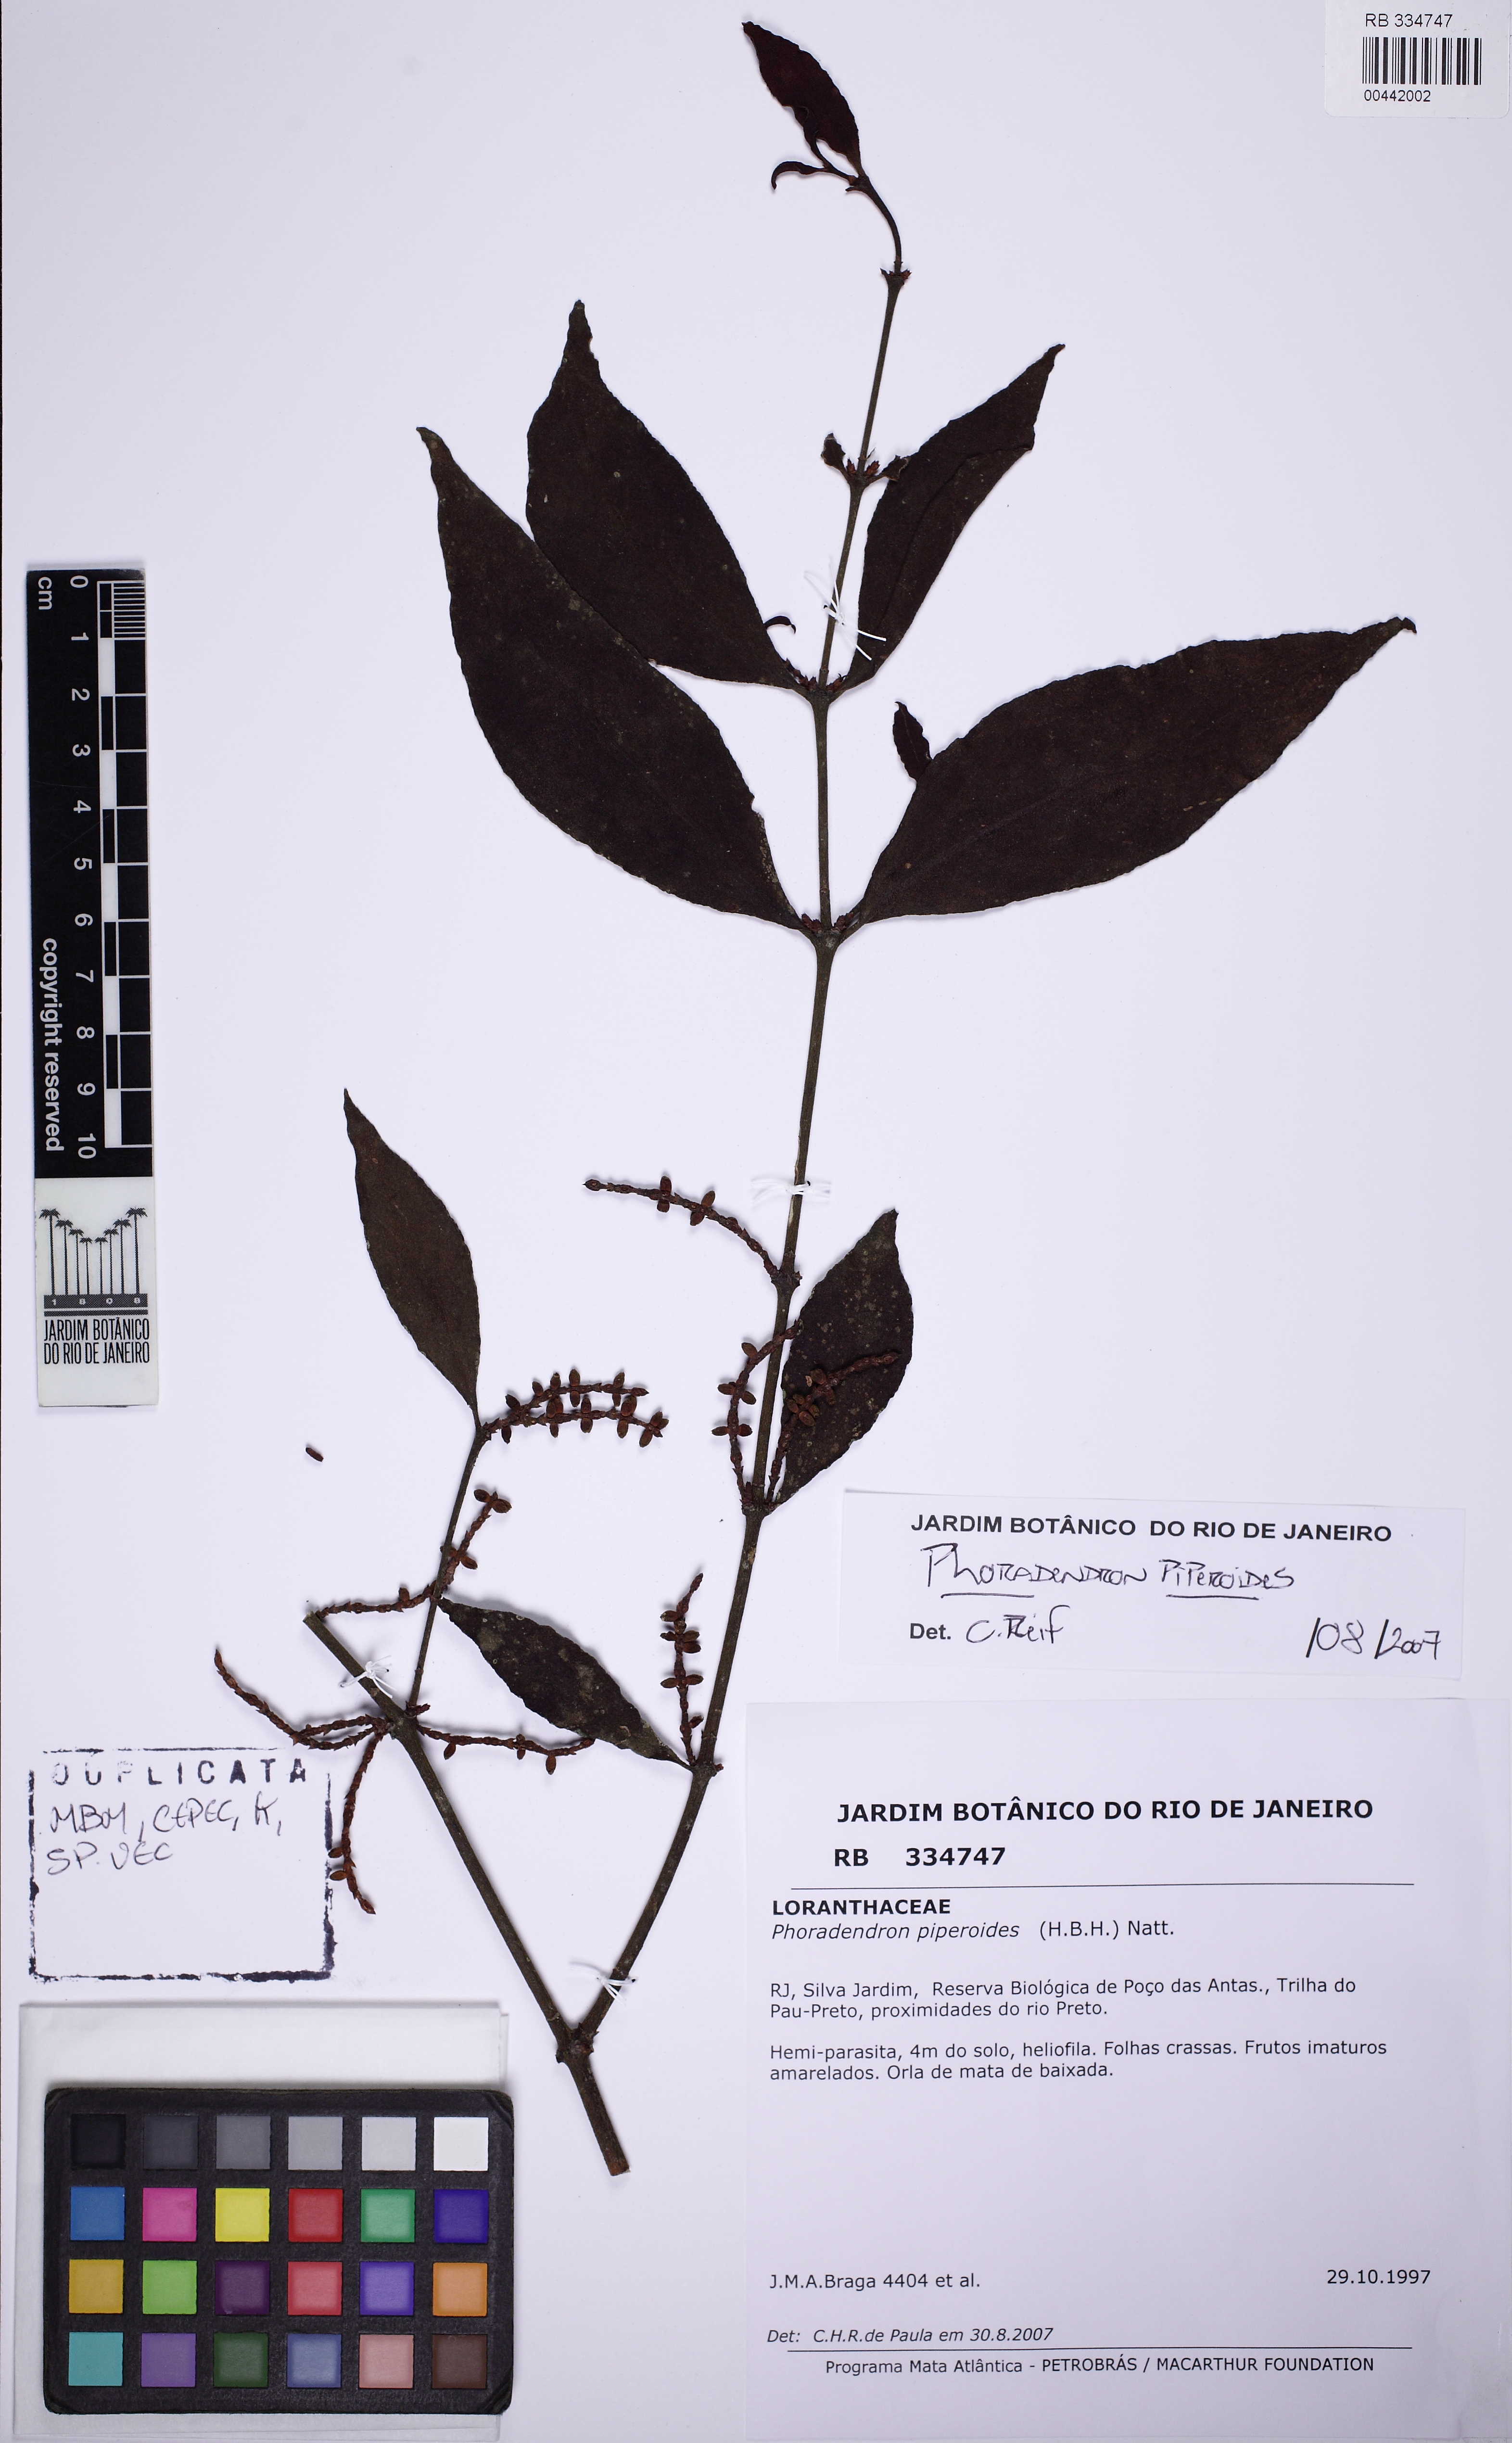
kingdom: Plantae
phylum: Tracheophyta
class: Magnoliopsida
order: Santalales
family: Viscaceae
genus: Phoradendron
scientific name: Phoradendron piperoides
